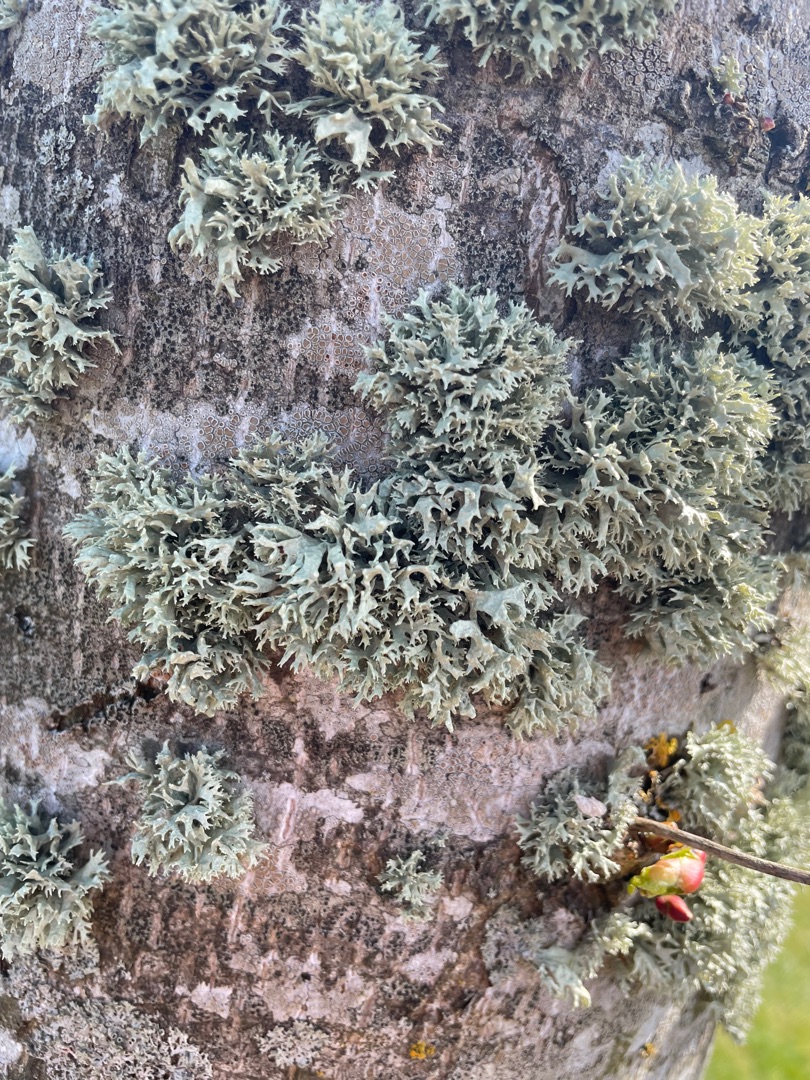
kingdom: Fungi
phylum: Ascomycota
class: Lecanoromycetes
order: Lecanorales
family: Parmeliaceae
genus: Evernia
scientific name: Evernia prunastri
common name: Almindelig slåenlav
